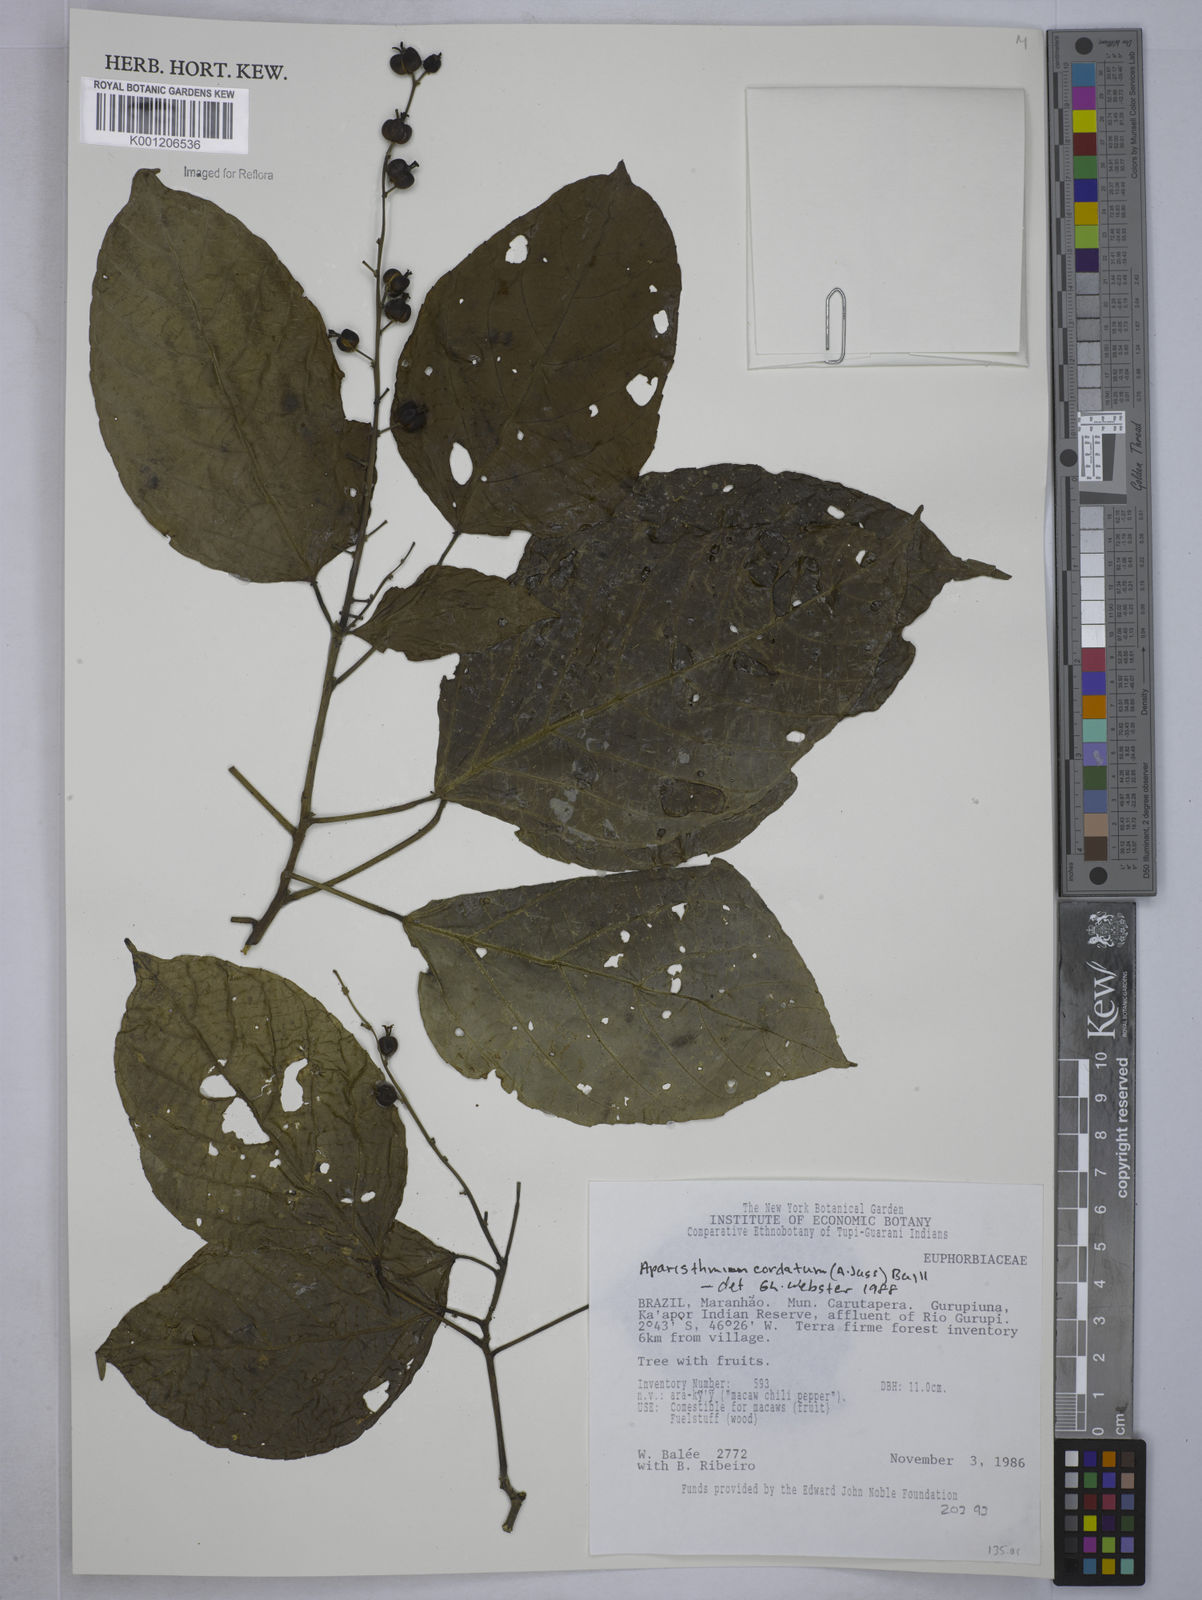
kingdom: Plantae
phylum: Tracheophyta
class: Magnoliopsida
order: Malpighiales
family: Euphorbiaceae
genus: Aparisthmium
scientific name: Aparisthmium cordatum
